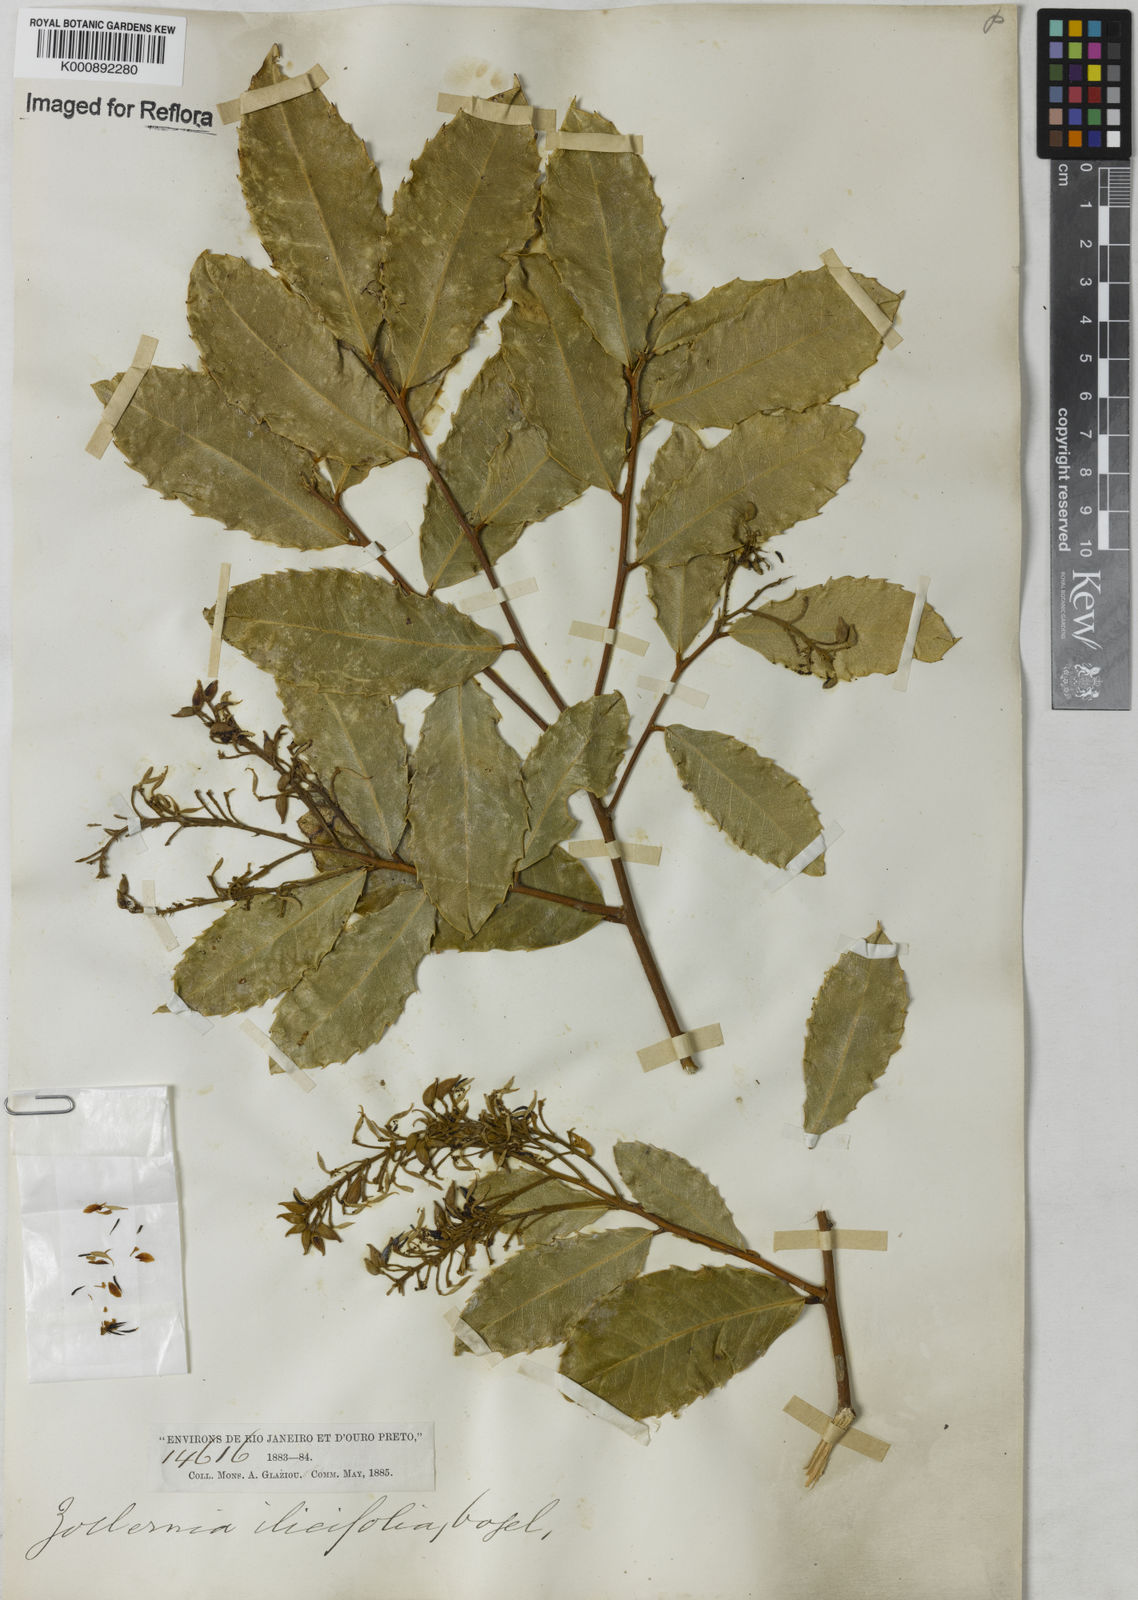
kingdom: Plantae
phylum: Tracheophyta
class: Magnoliopsida
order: Fabales
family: Fabaceae
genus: Zollernia
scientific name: Zollernia ilicifolia
